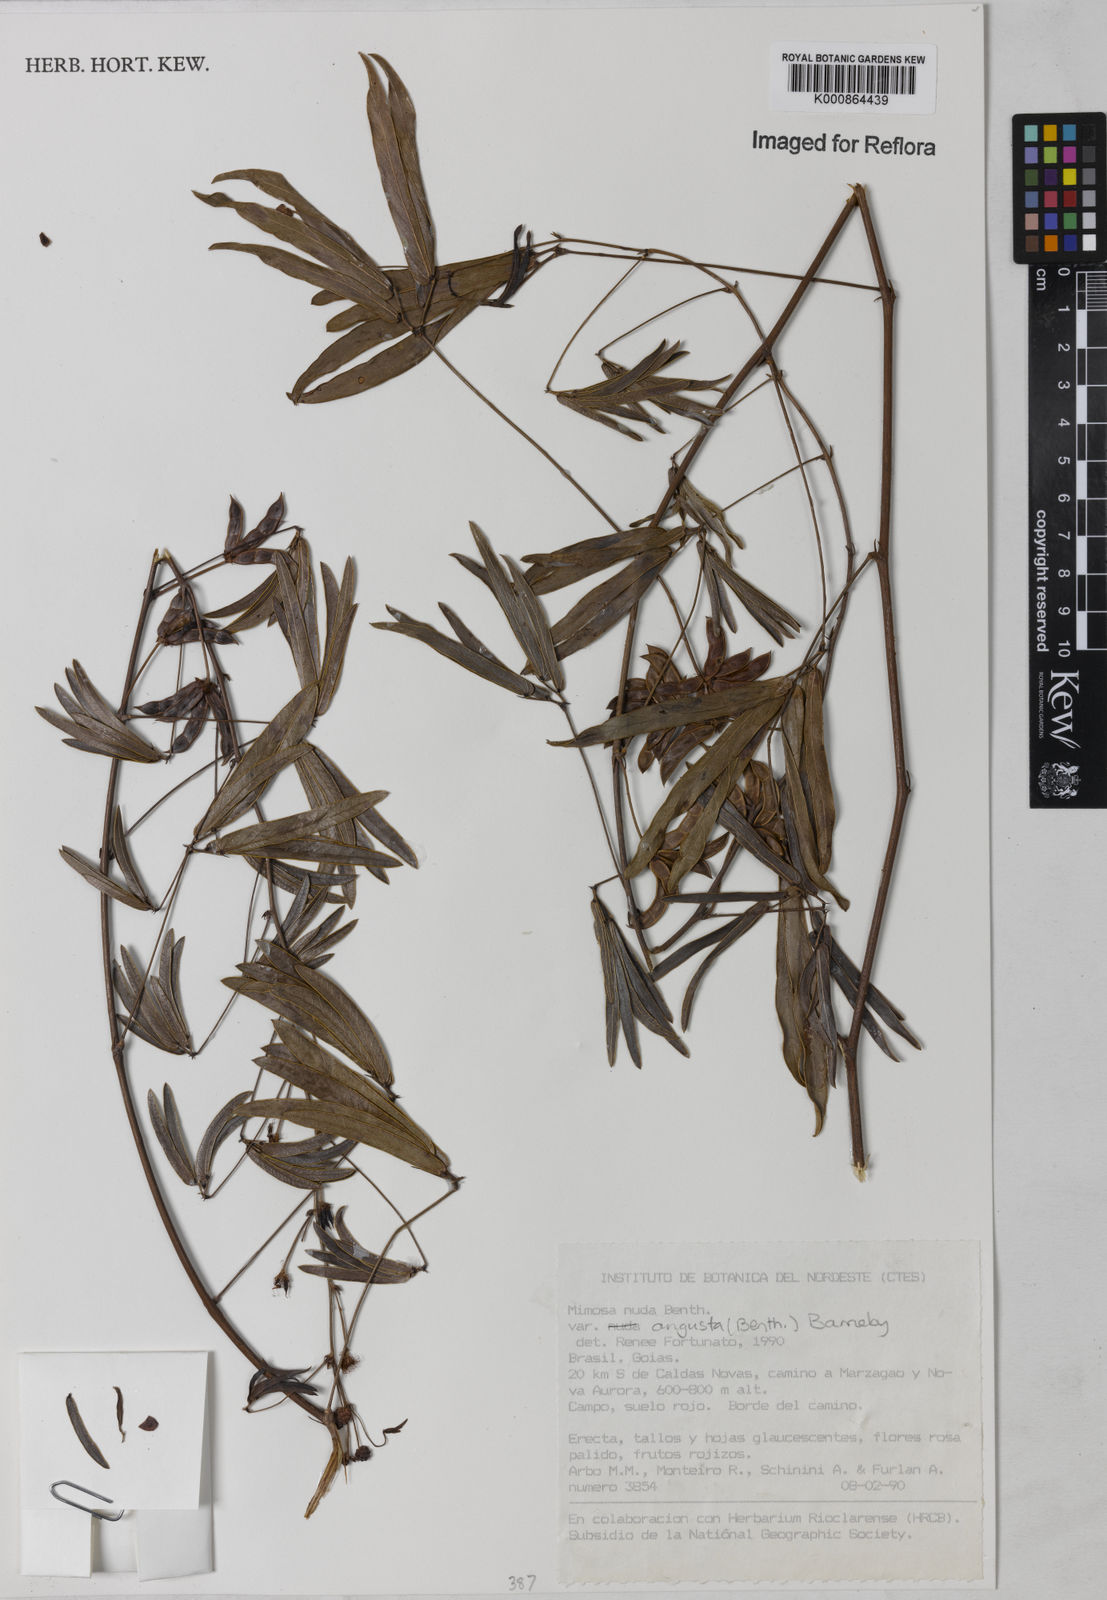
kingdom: Plantae
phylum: Tracheophyta
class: Magnoliopsida
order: Fabales
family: Fabaceae
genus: Mimosa
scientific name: Mimosa debilis
